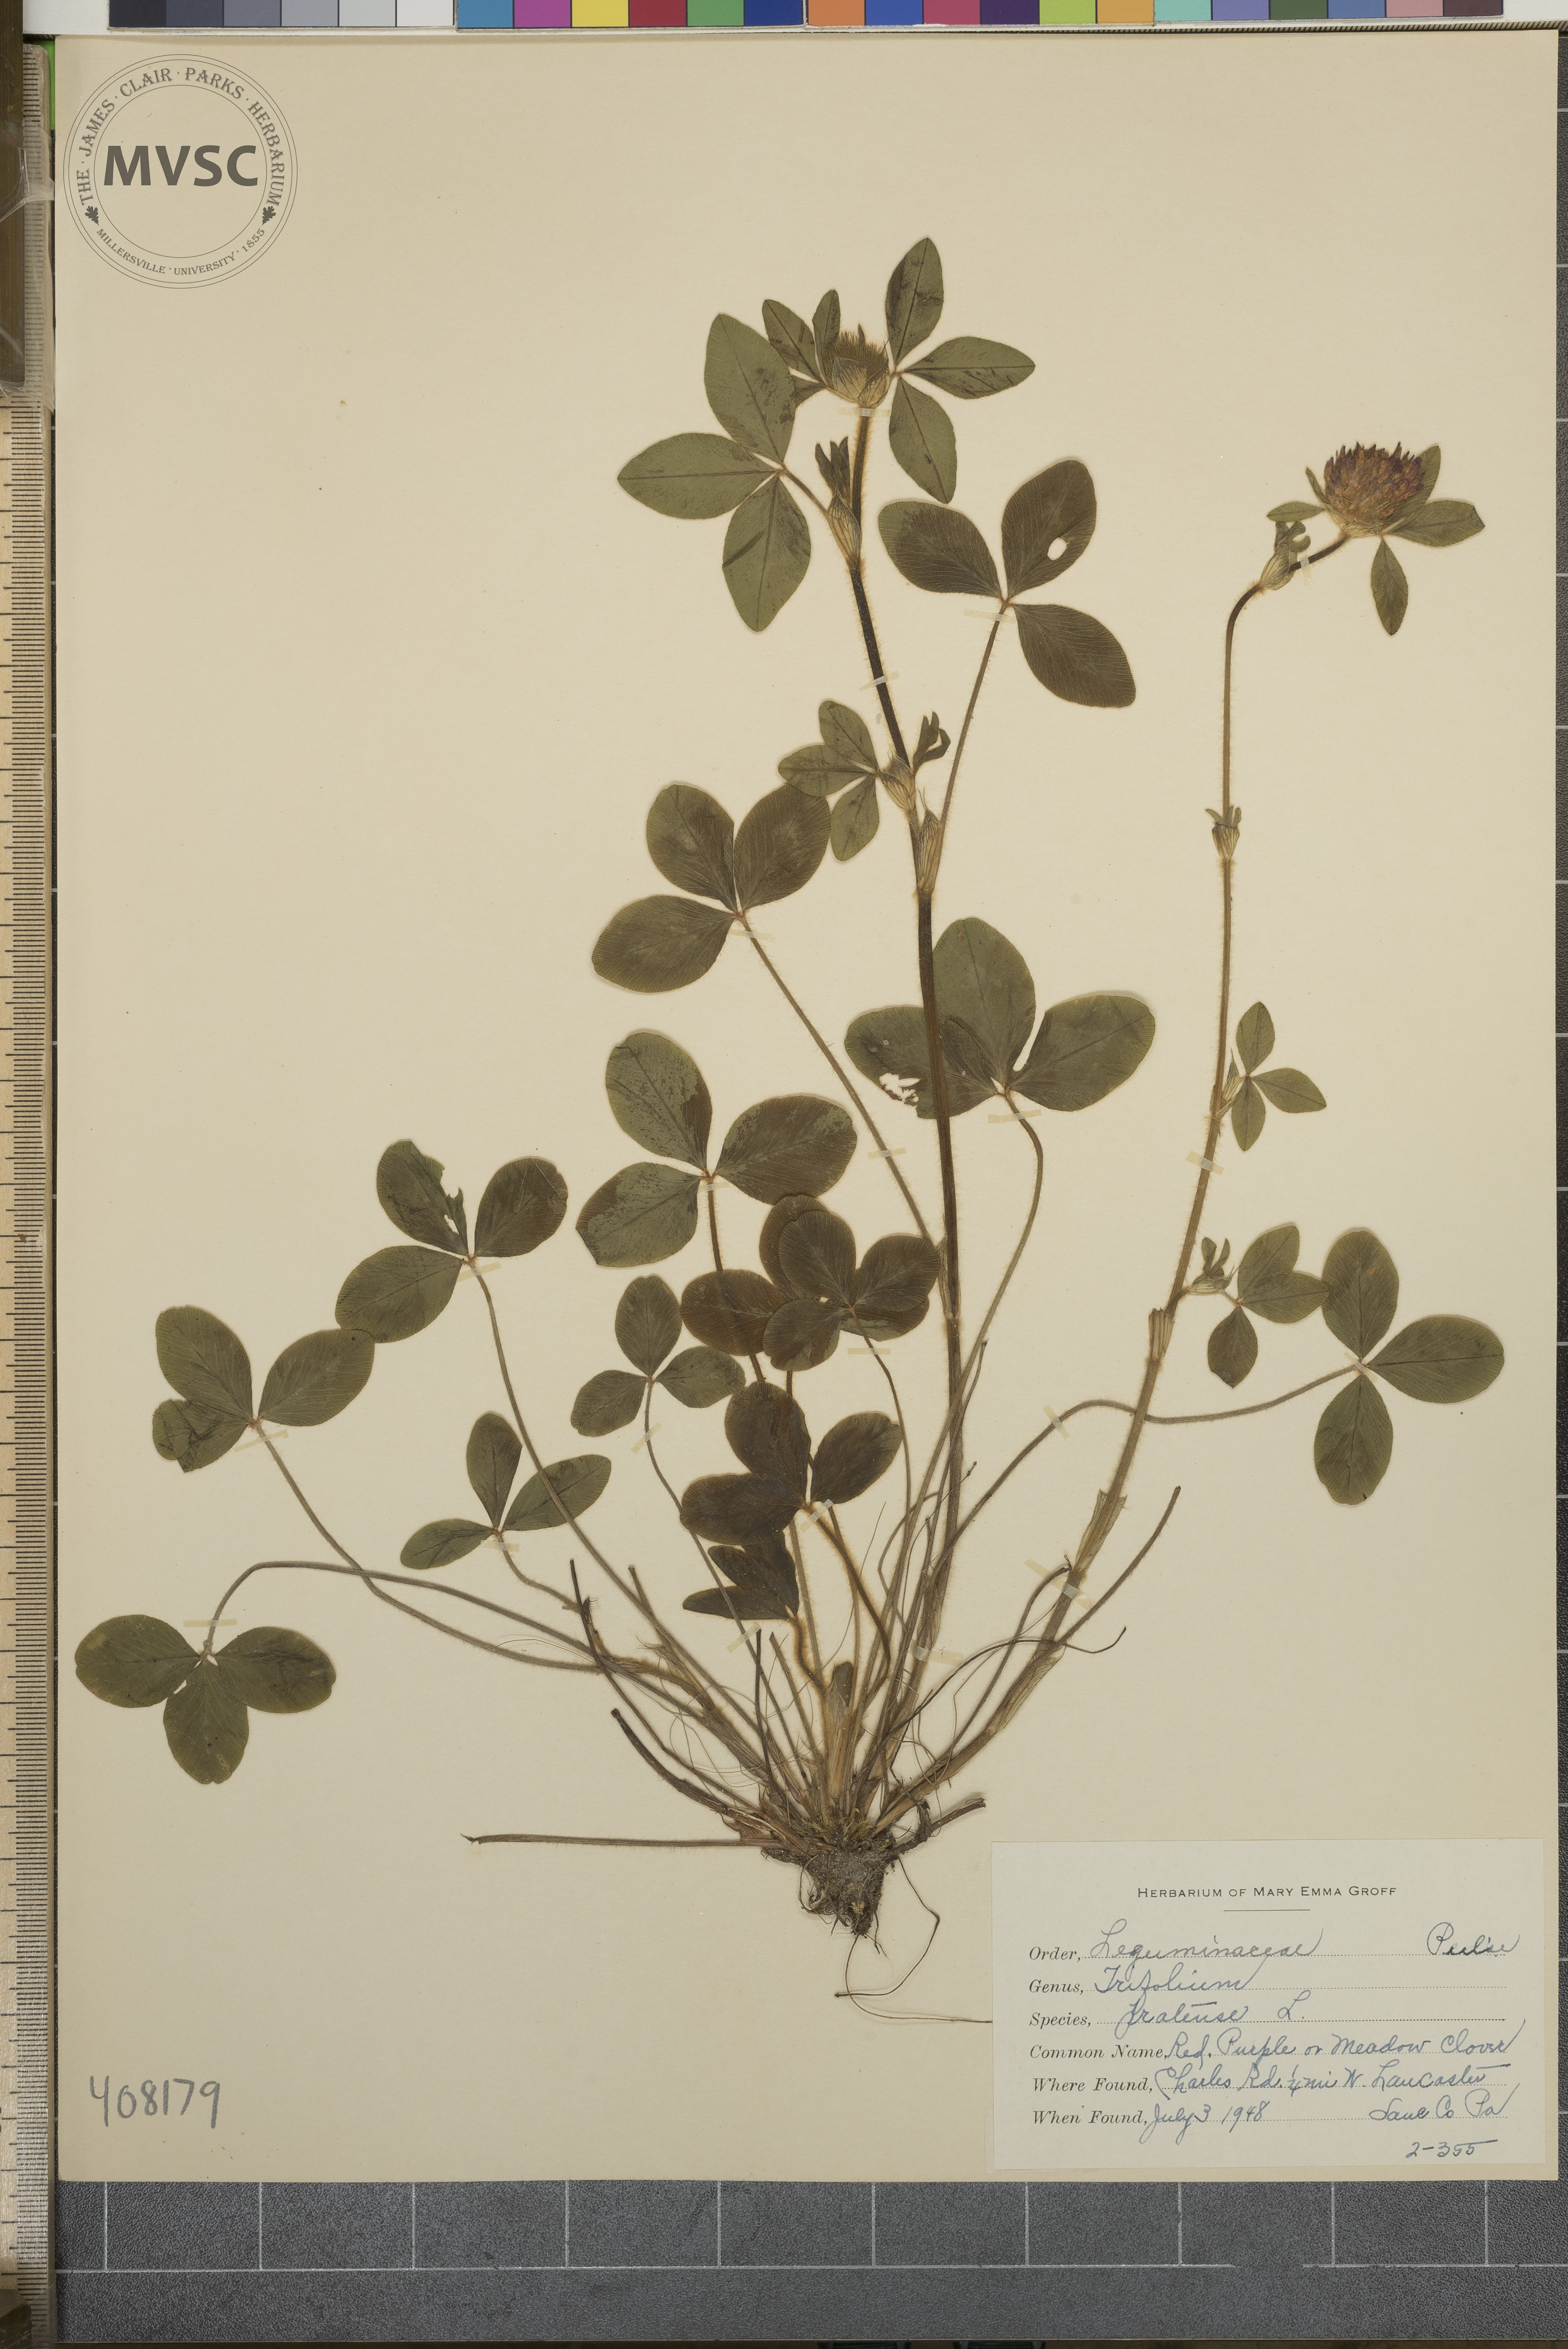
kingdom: Plantae
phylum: Tracheophyta
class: Magnoliopsida
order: Fabales
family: Fabaceae
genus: Trifolium
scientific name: Trifolium pratense
